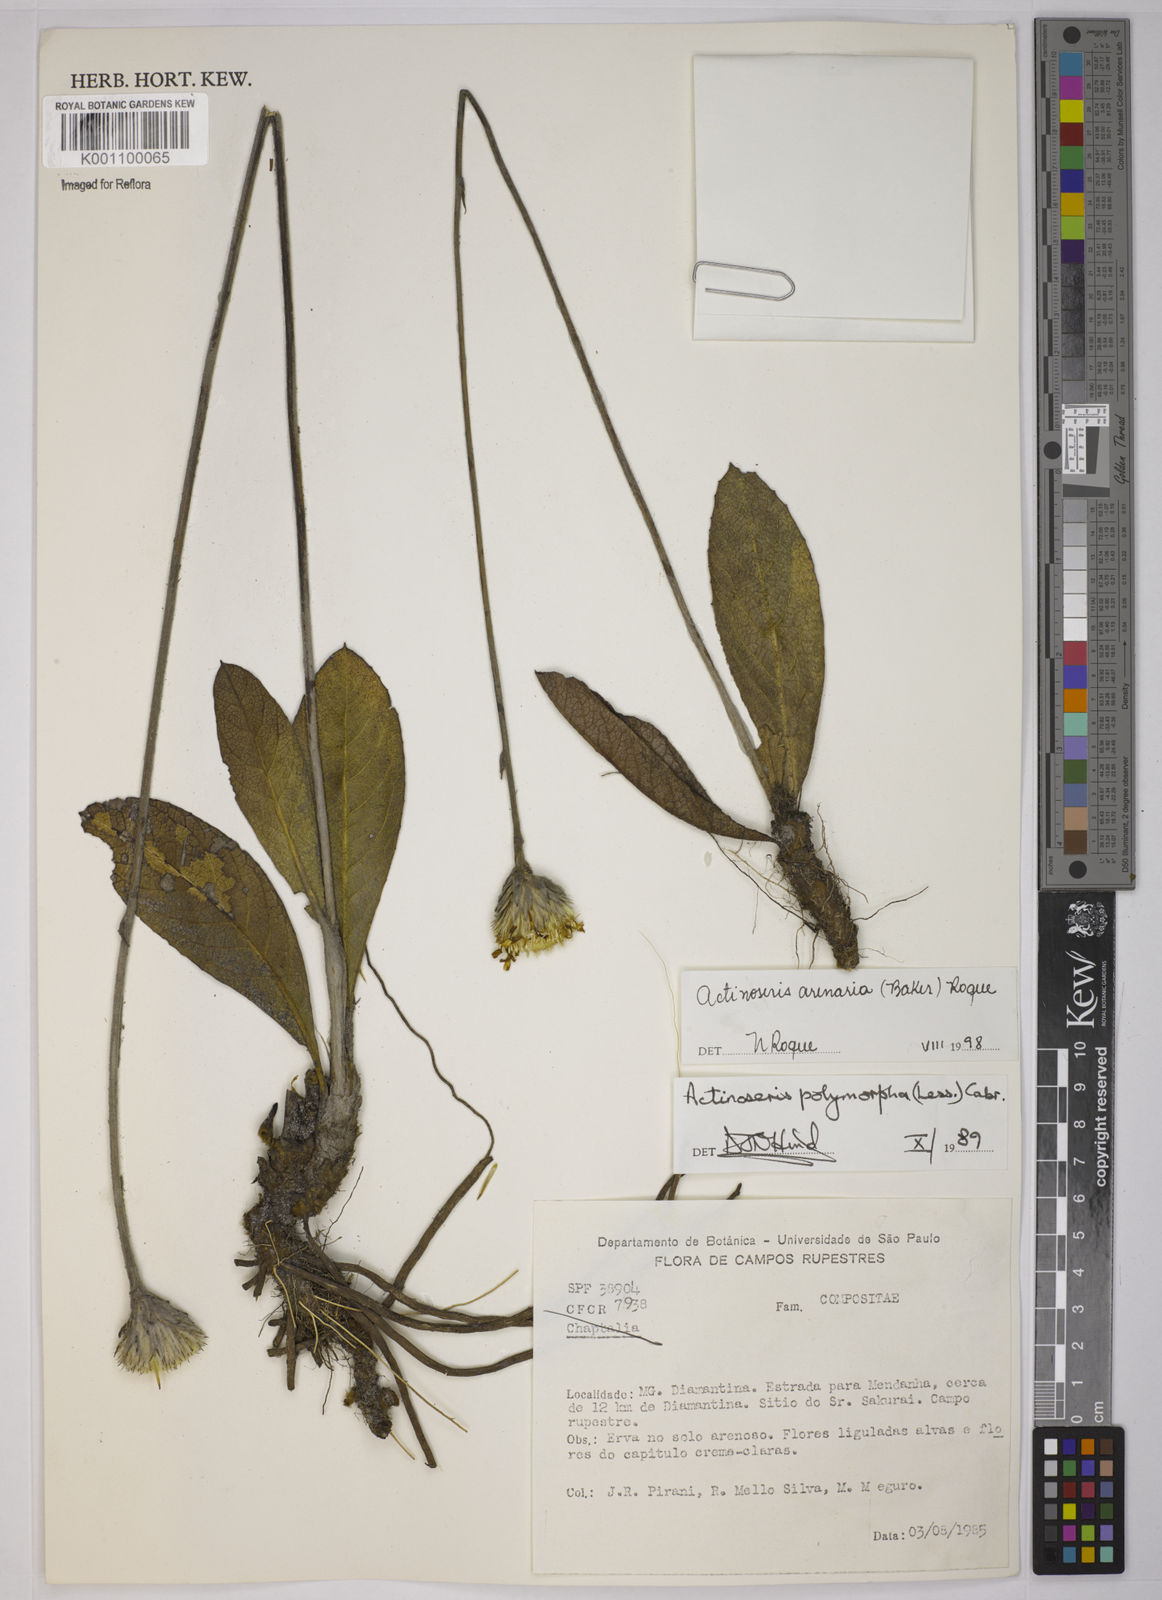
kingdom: Plantae
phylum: Tracheophyta
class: Magnoliopsida
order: Asterales
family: Asteraceae
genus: Richterago
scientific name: Richterago arenaria
